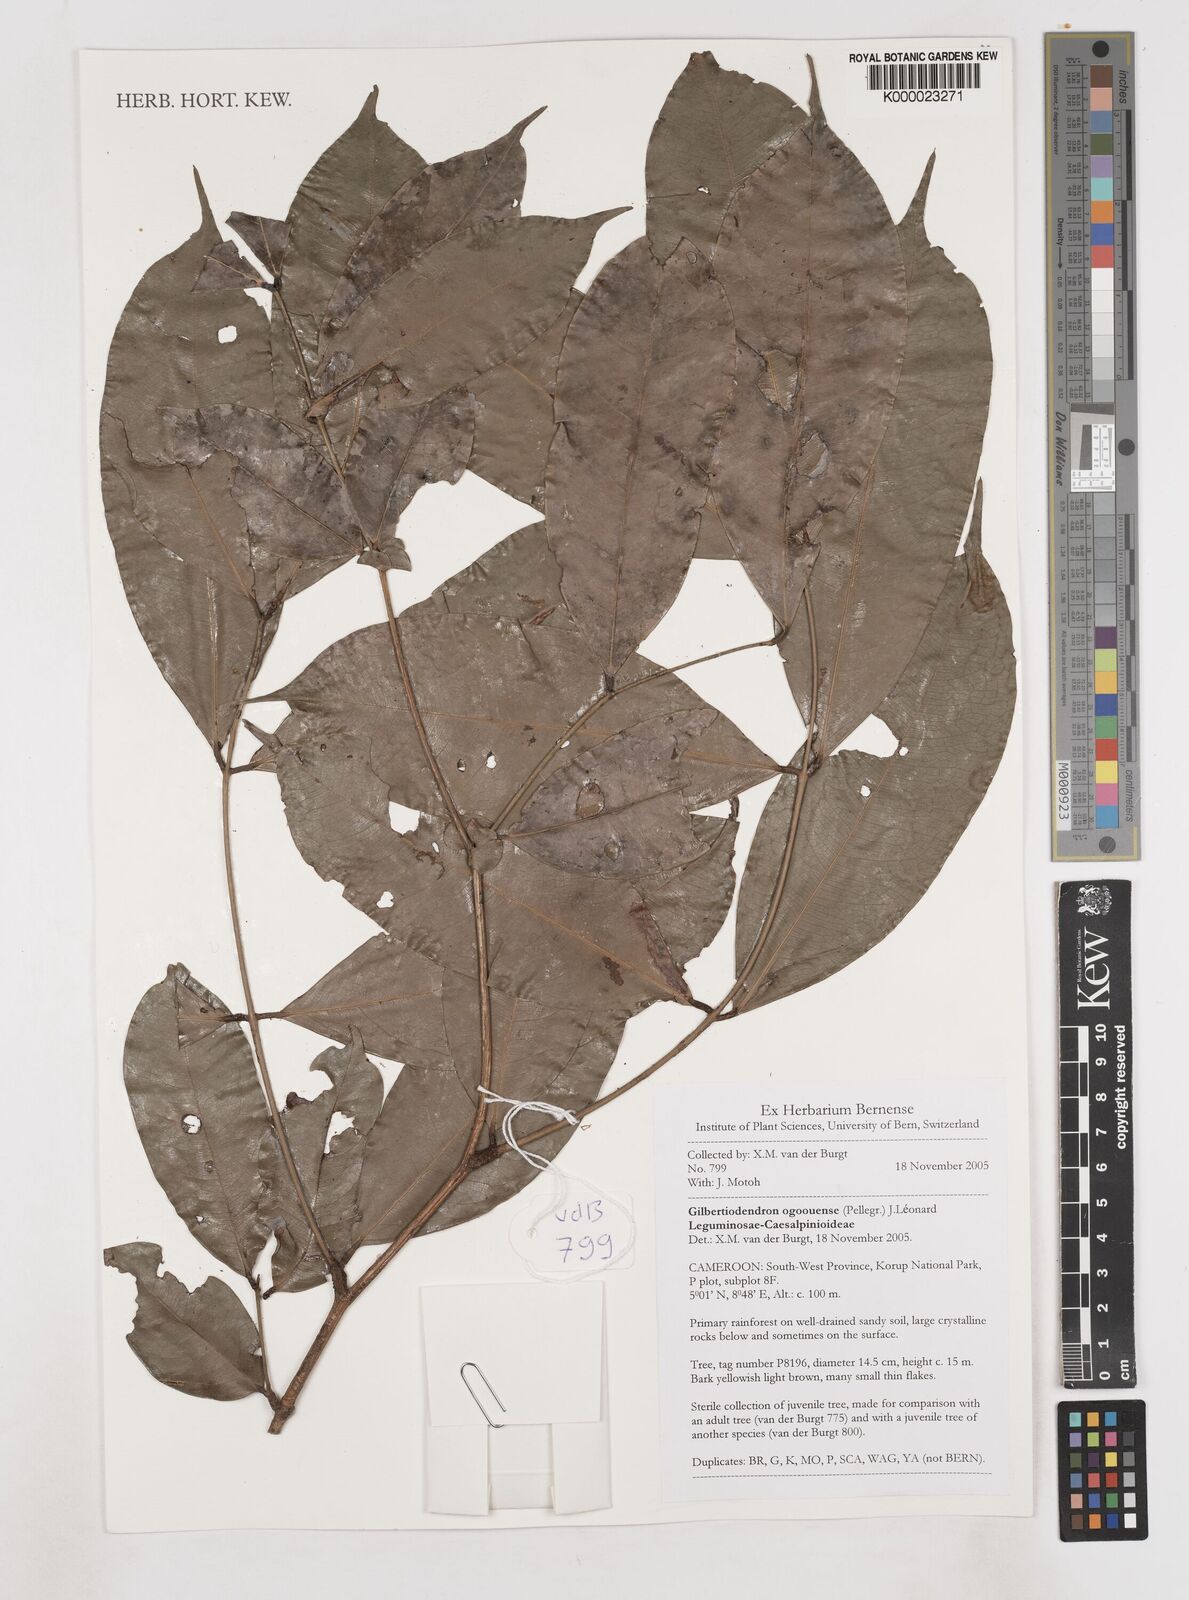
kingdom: Plantae
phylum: Tracheophyta
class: Magnoliopsida
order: Fabales
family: Fabaceae
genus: Gilbertiodendron
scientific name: Gilbertiodendron
